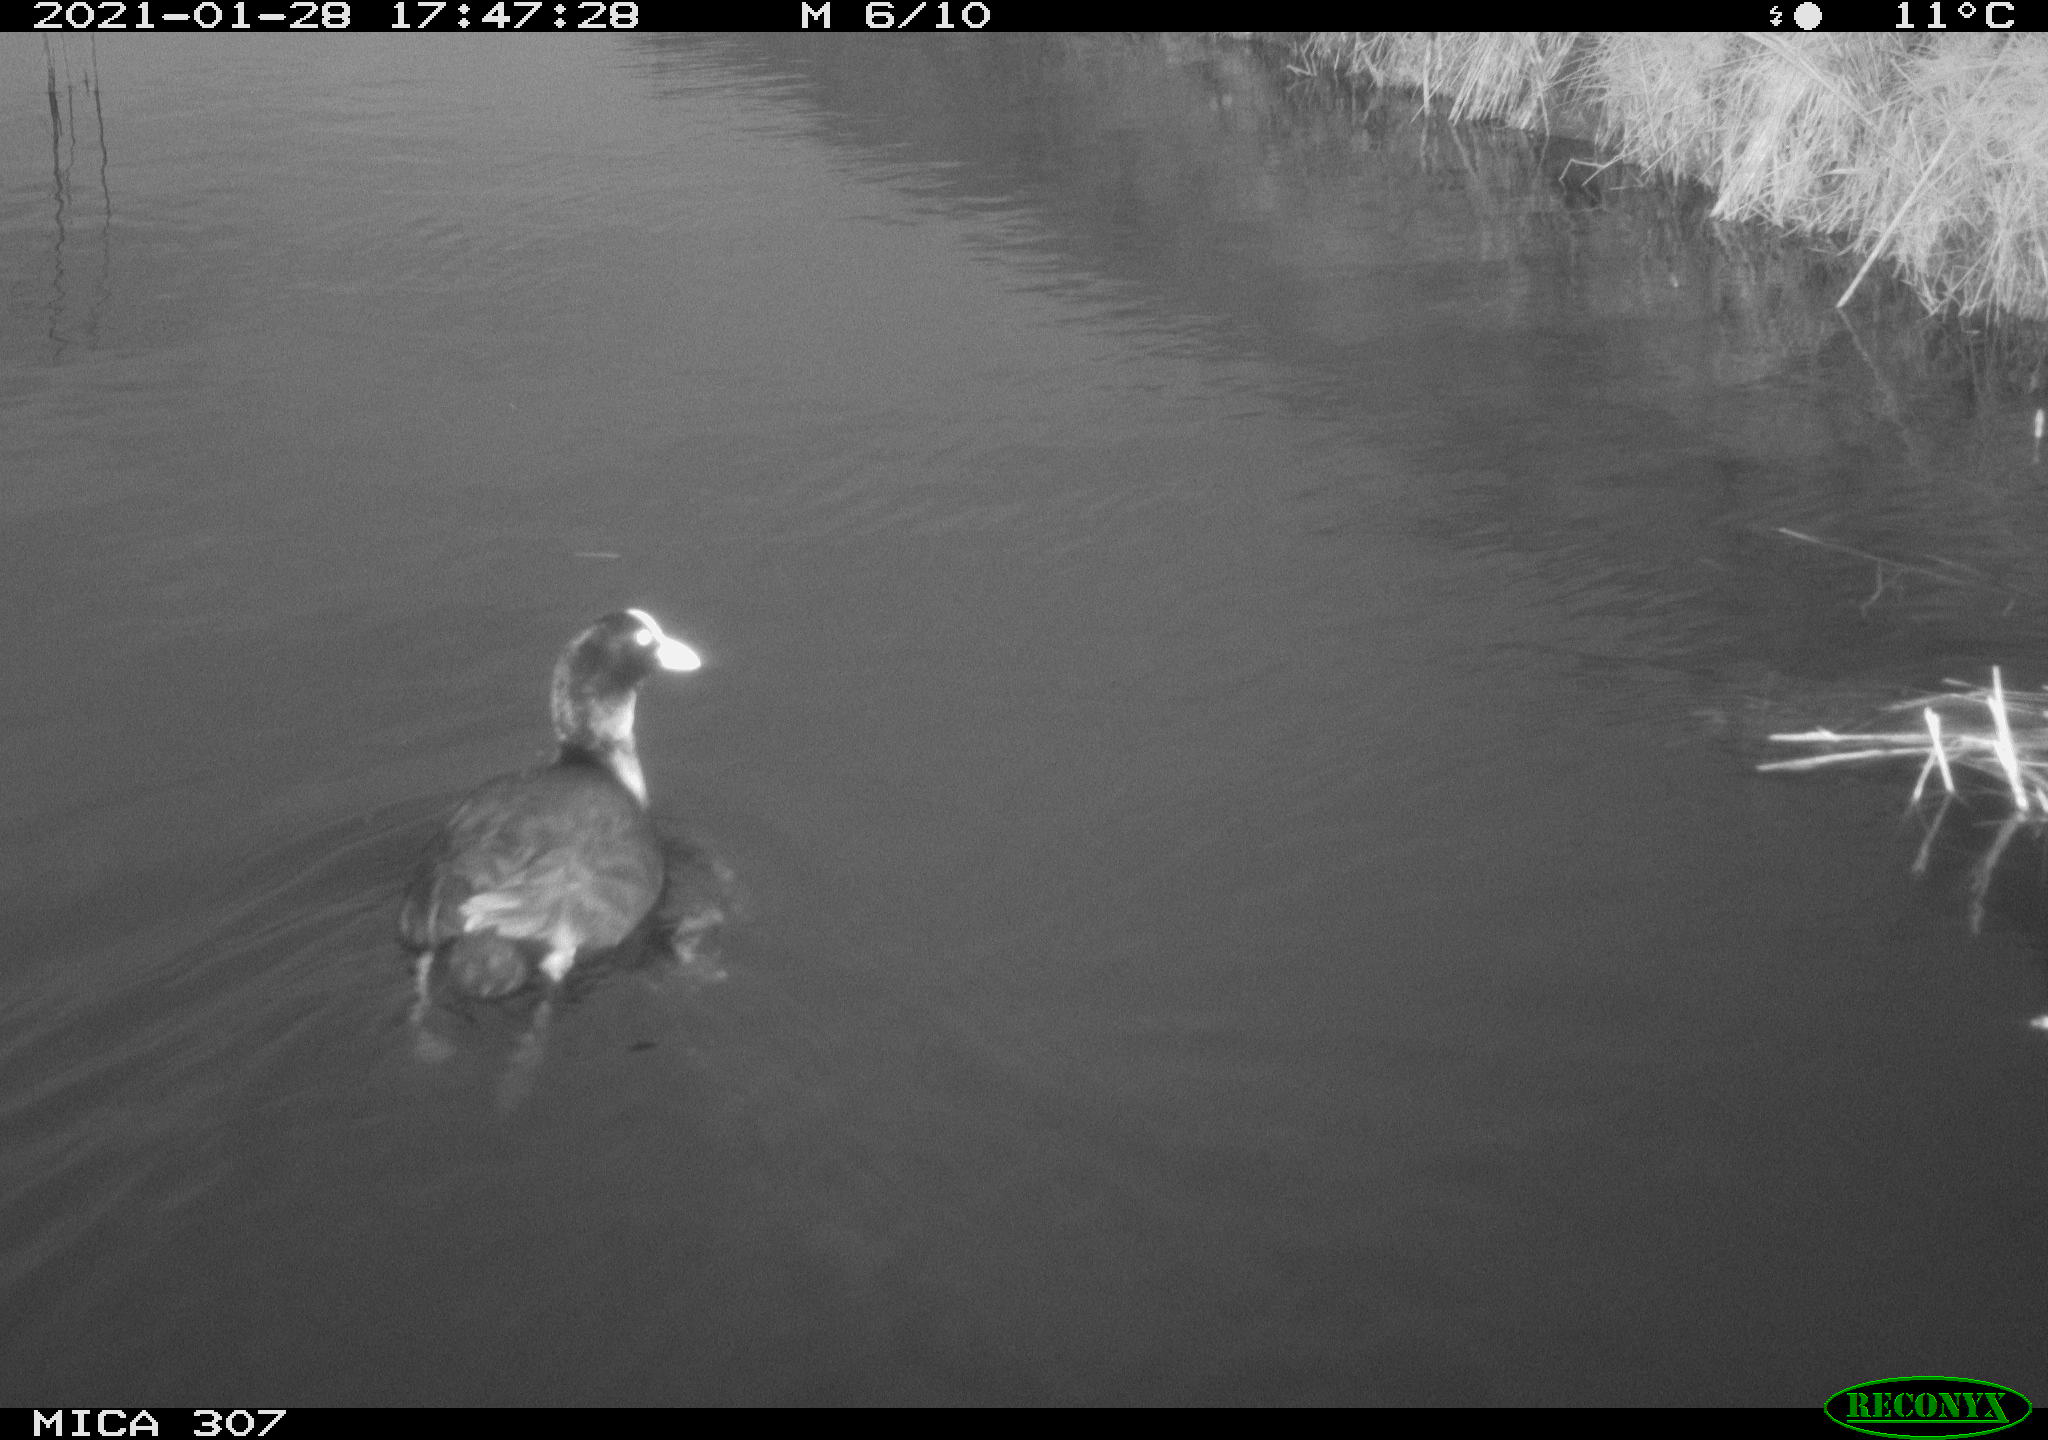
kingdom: Animalia
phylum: Chordata
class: Aves
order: Gruiformes
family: Rallidae
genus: Fulica
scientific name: Fulica atra
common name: Eurasian coot
